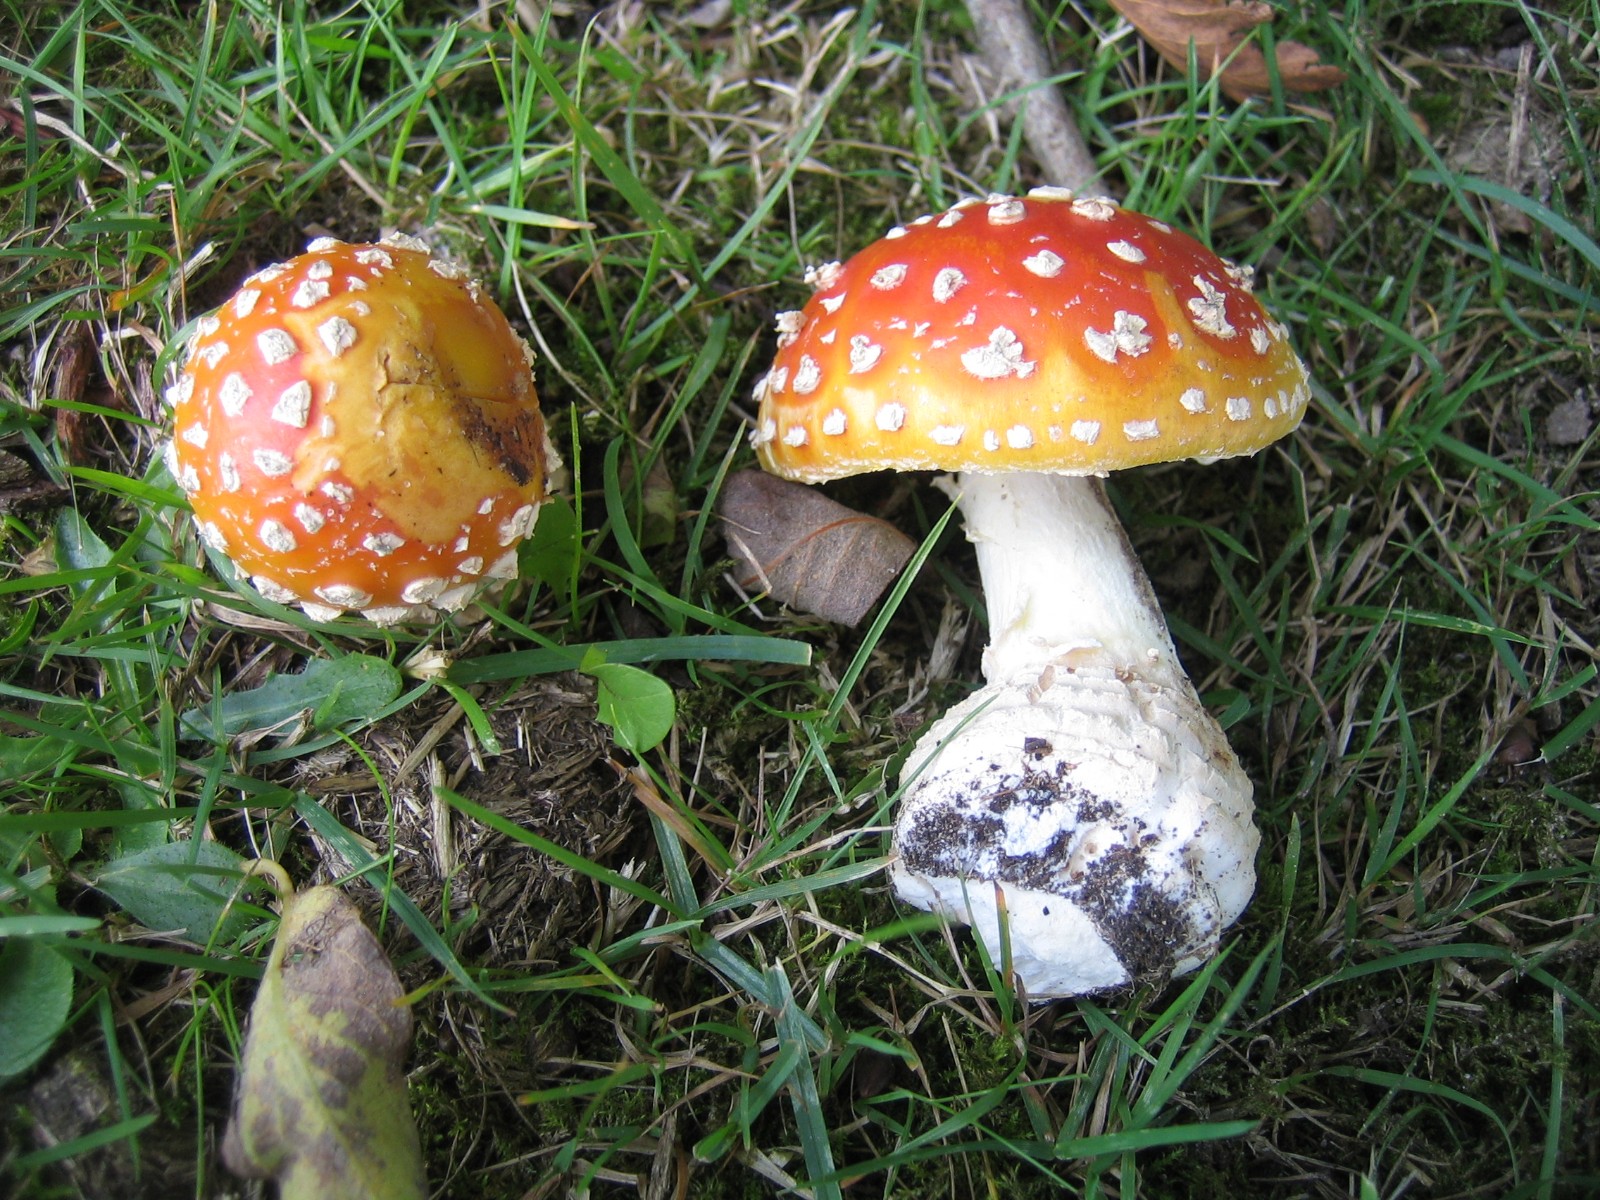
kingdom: Fungi
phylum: Basidiomycota
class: Agaricomycetes
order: Agaricales
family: Amanitaceae
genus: Amanita
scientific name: Amanita muscaria
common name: rød fluesvamp
